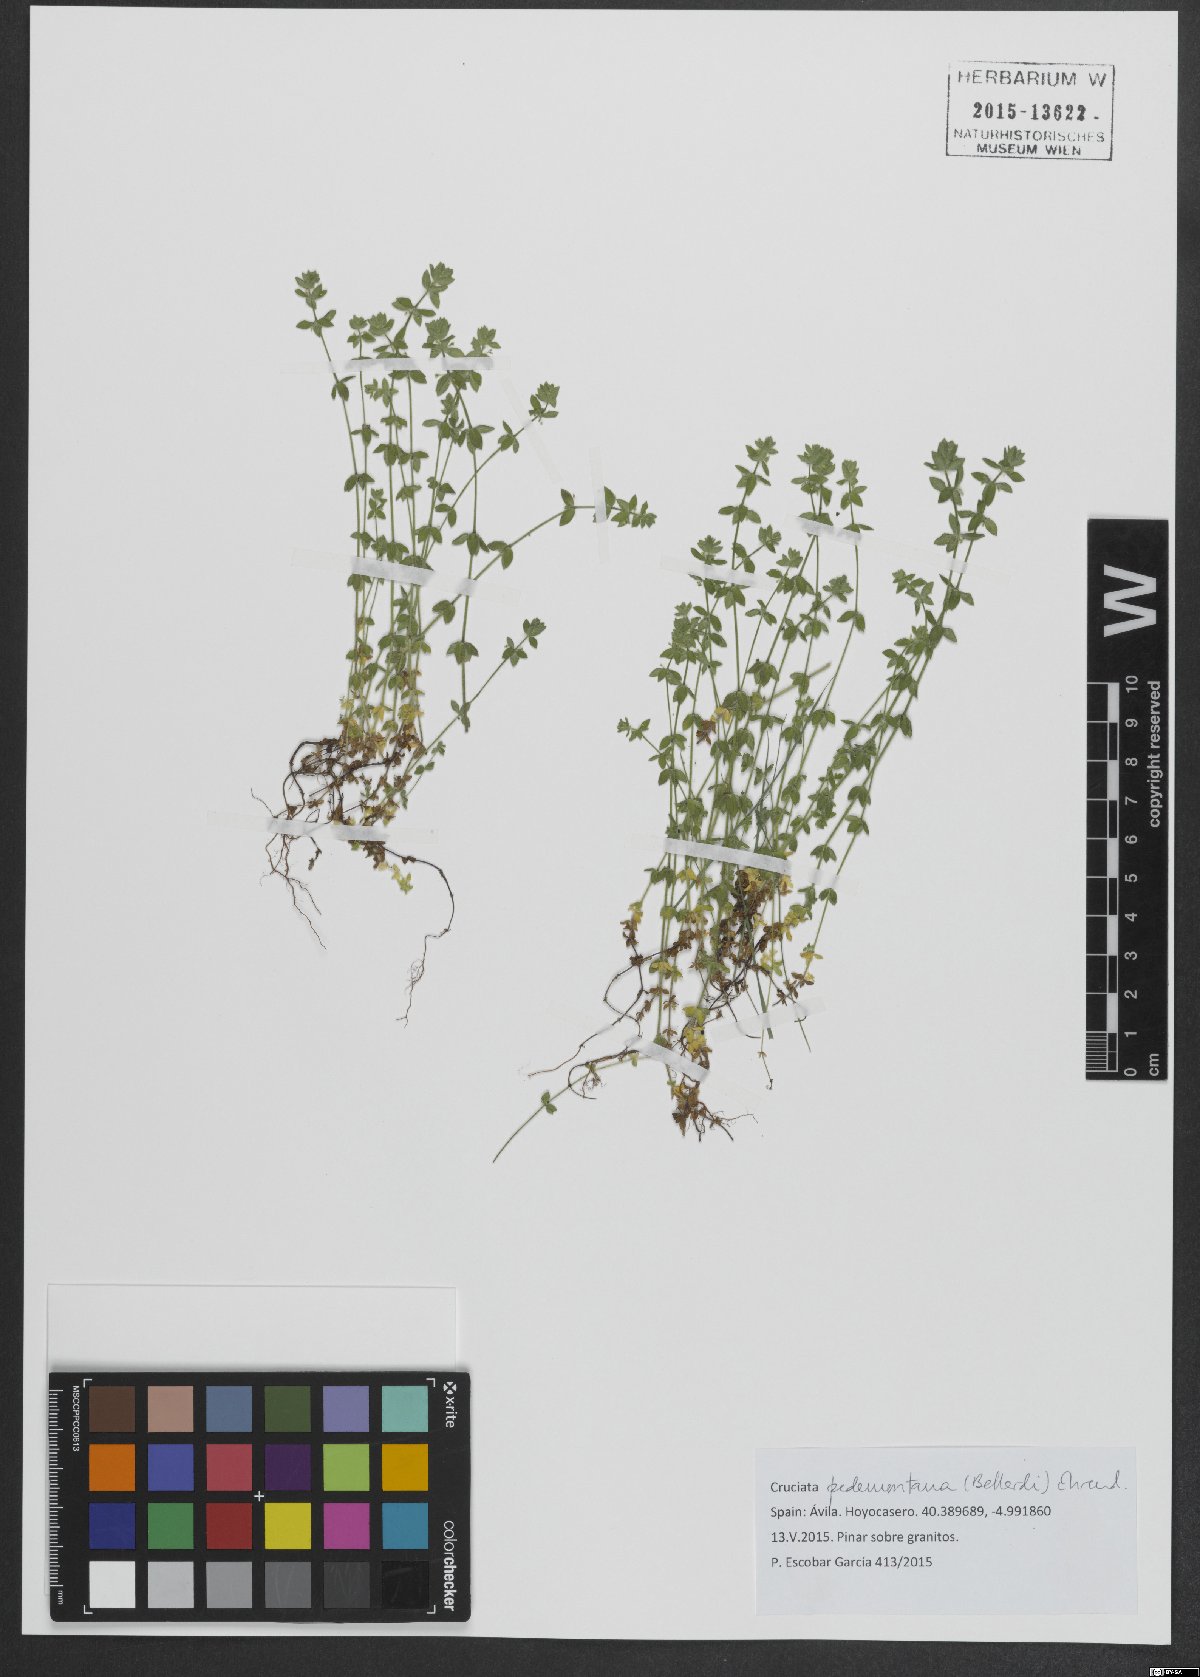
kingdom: Plantae
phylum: Tracheophyta
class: Magnoliopsida
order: Gentianales
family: Rubiaceae
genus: Cruciata
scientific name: Cruciata pedemontana
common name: Piedmont bedstraw
